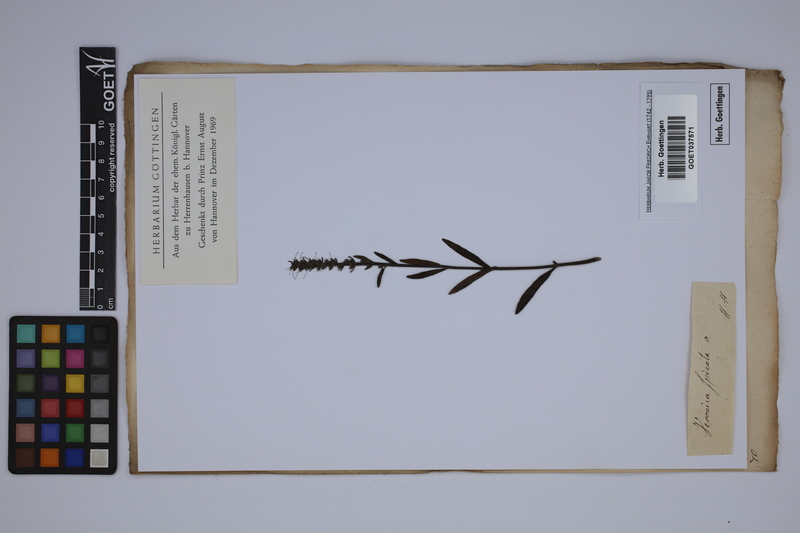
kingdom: Plantae
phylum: Tracheophyta
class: Magnoliopsida
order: Lamiales
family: Plantaginaceae
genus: Veronica
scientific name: Veronica spicata
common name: Spiked speedwell
